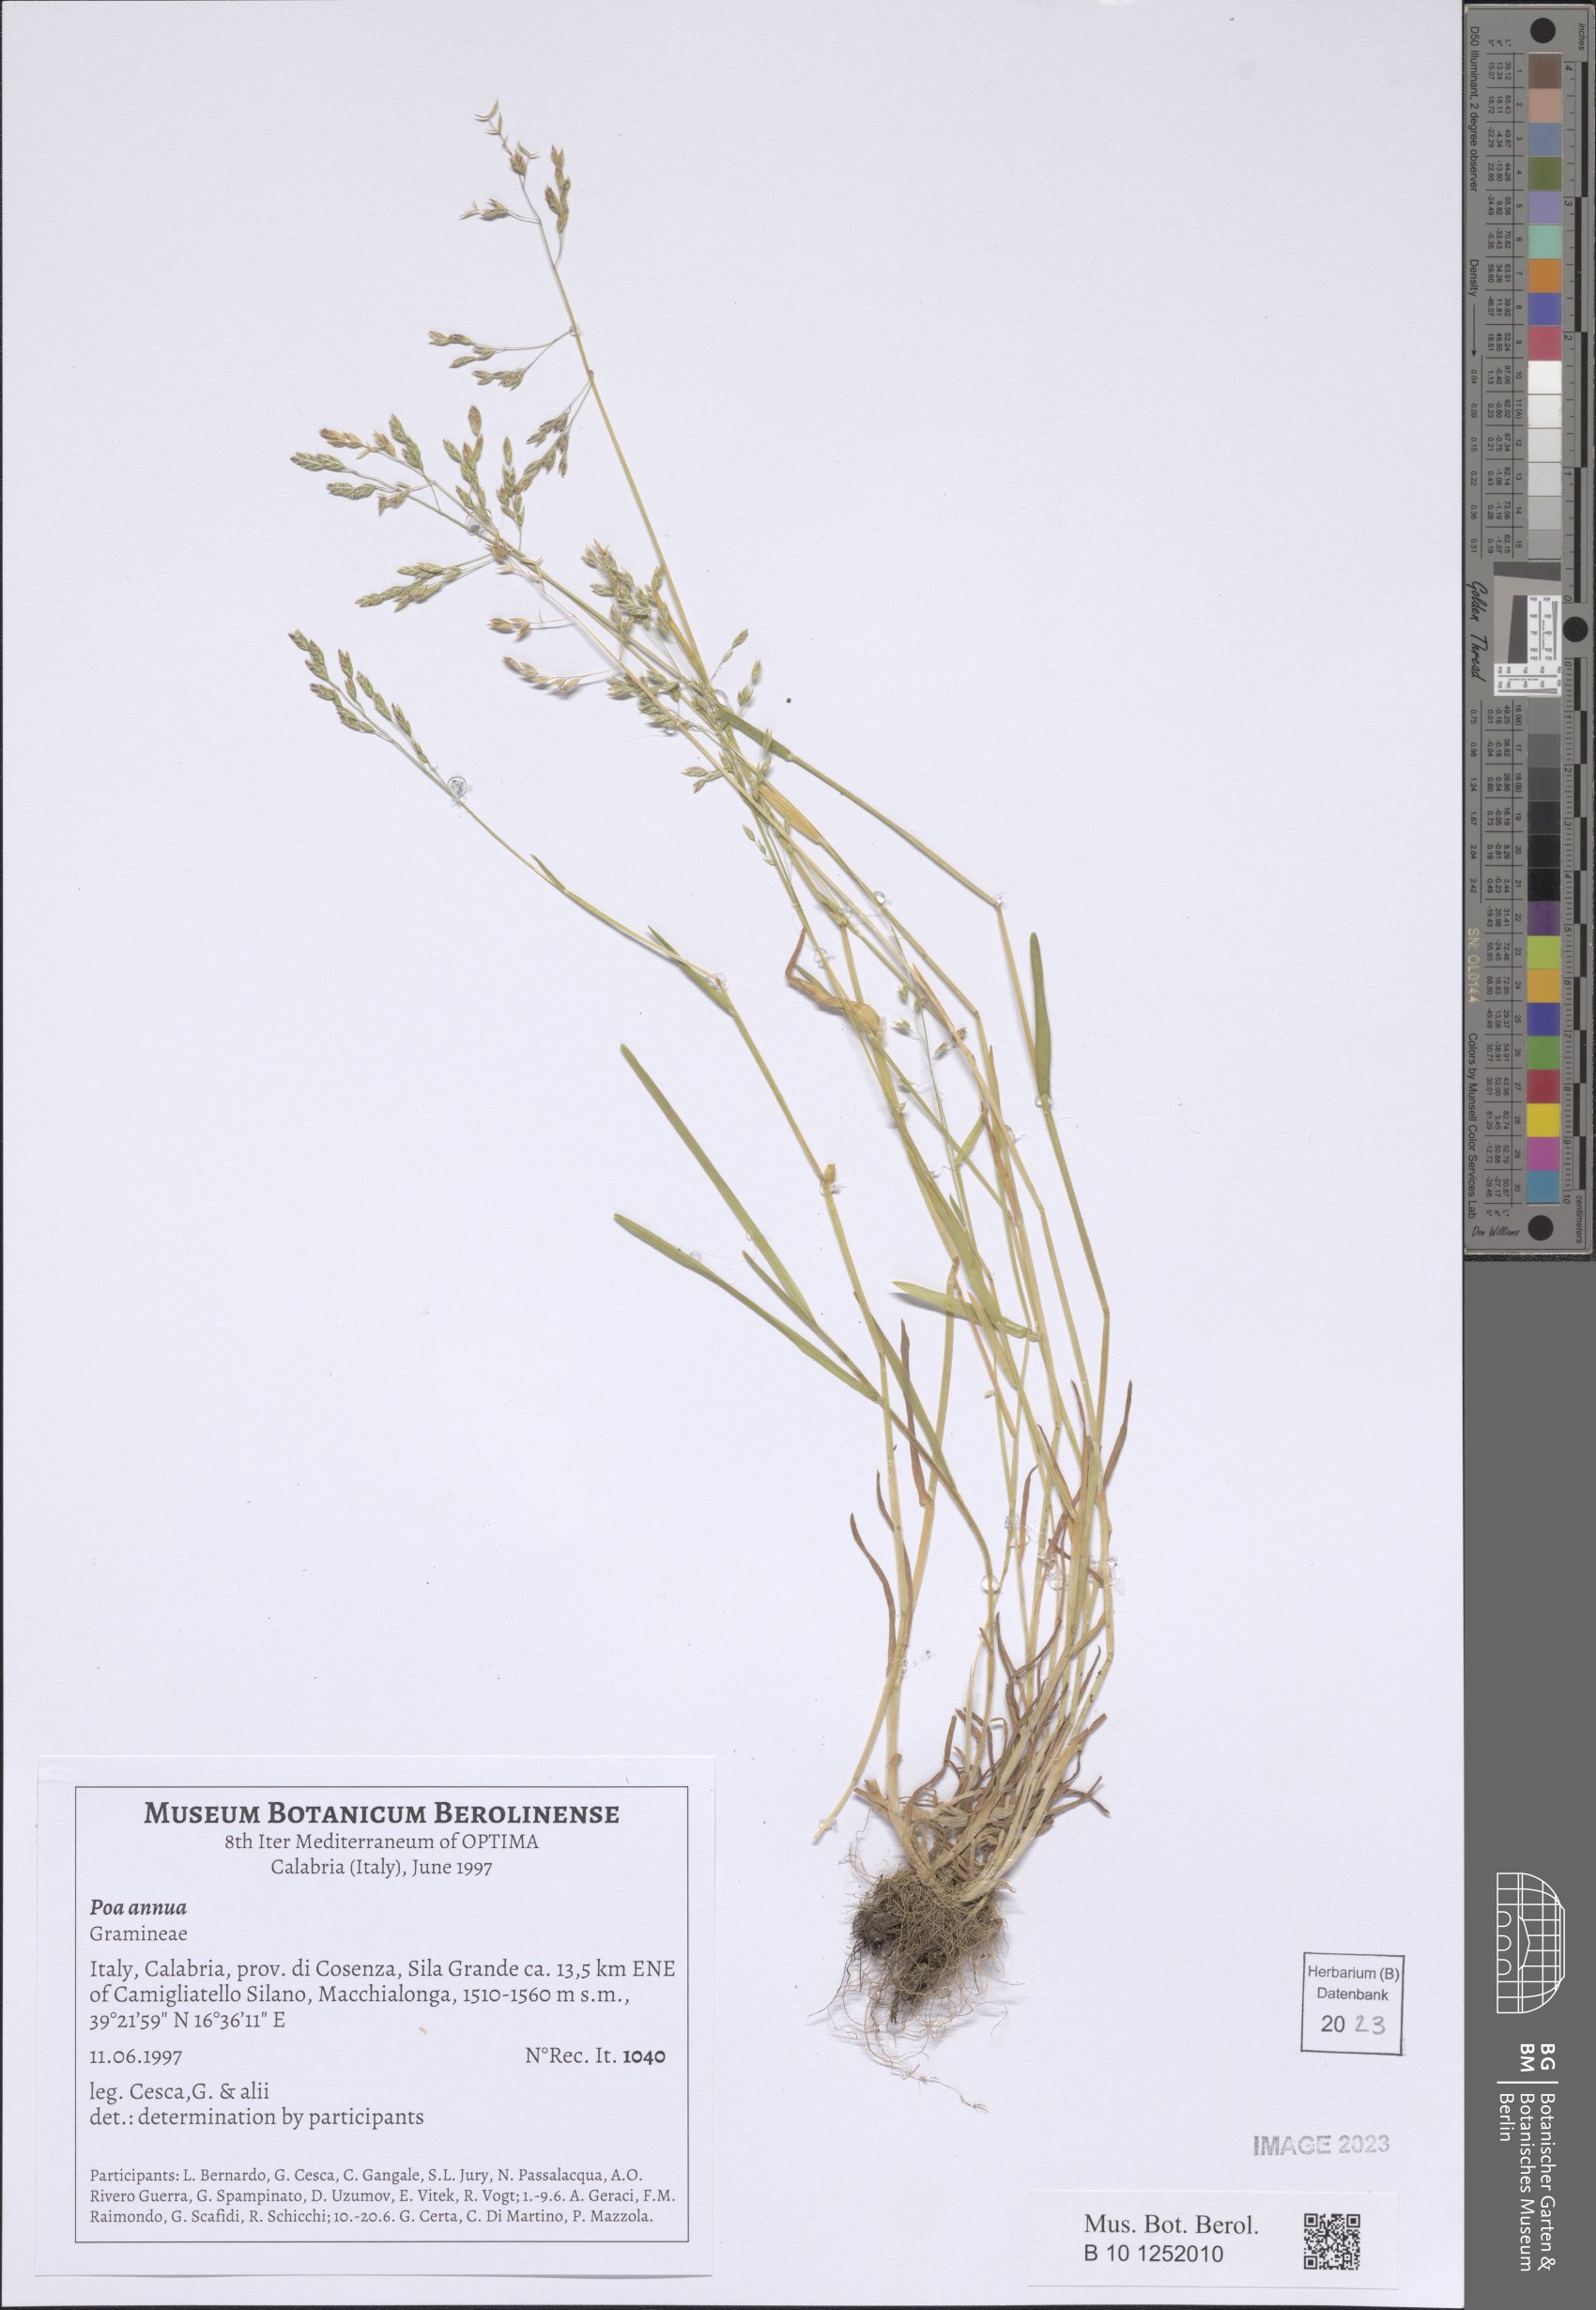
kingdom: Plantae
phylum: Tracheophyta
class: Liliopsida
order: Poales
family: Poaceae
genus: Poa
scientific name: Poa annua
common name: Annual bluegrass
